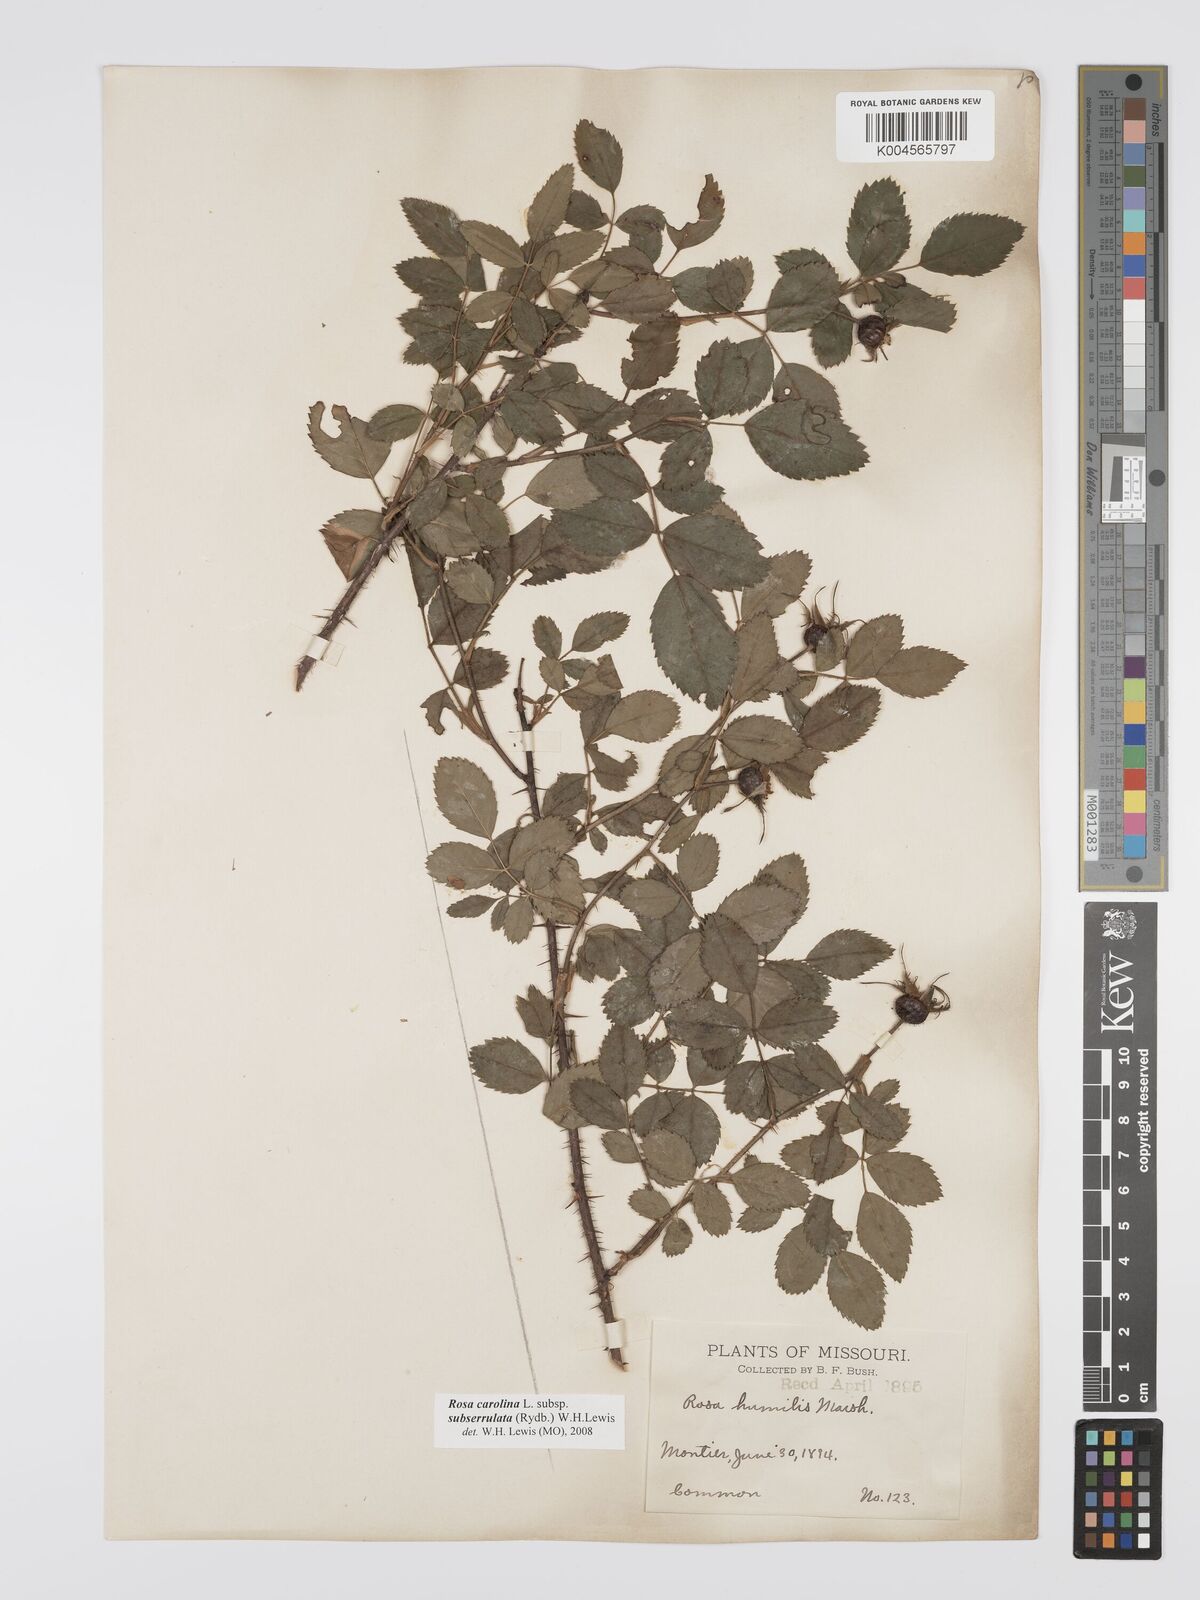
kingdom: Plantae
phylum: Tracheophyta
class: Magnoliopsida
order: Rosales
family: Rosaceae
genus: Rosa
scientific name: Rosa carolina
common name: Pasture rose
